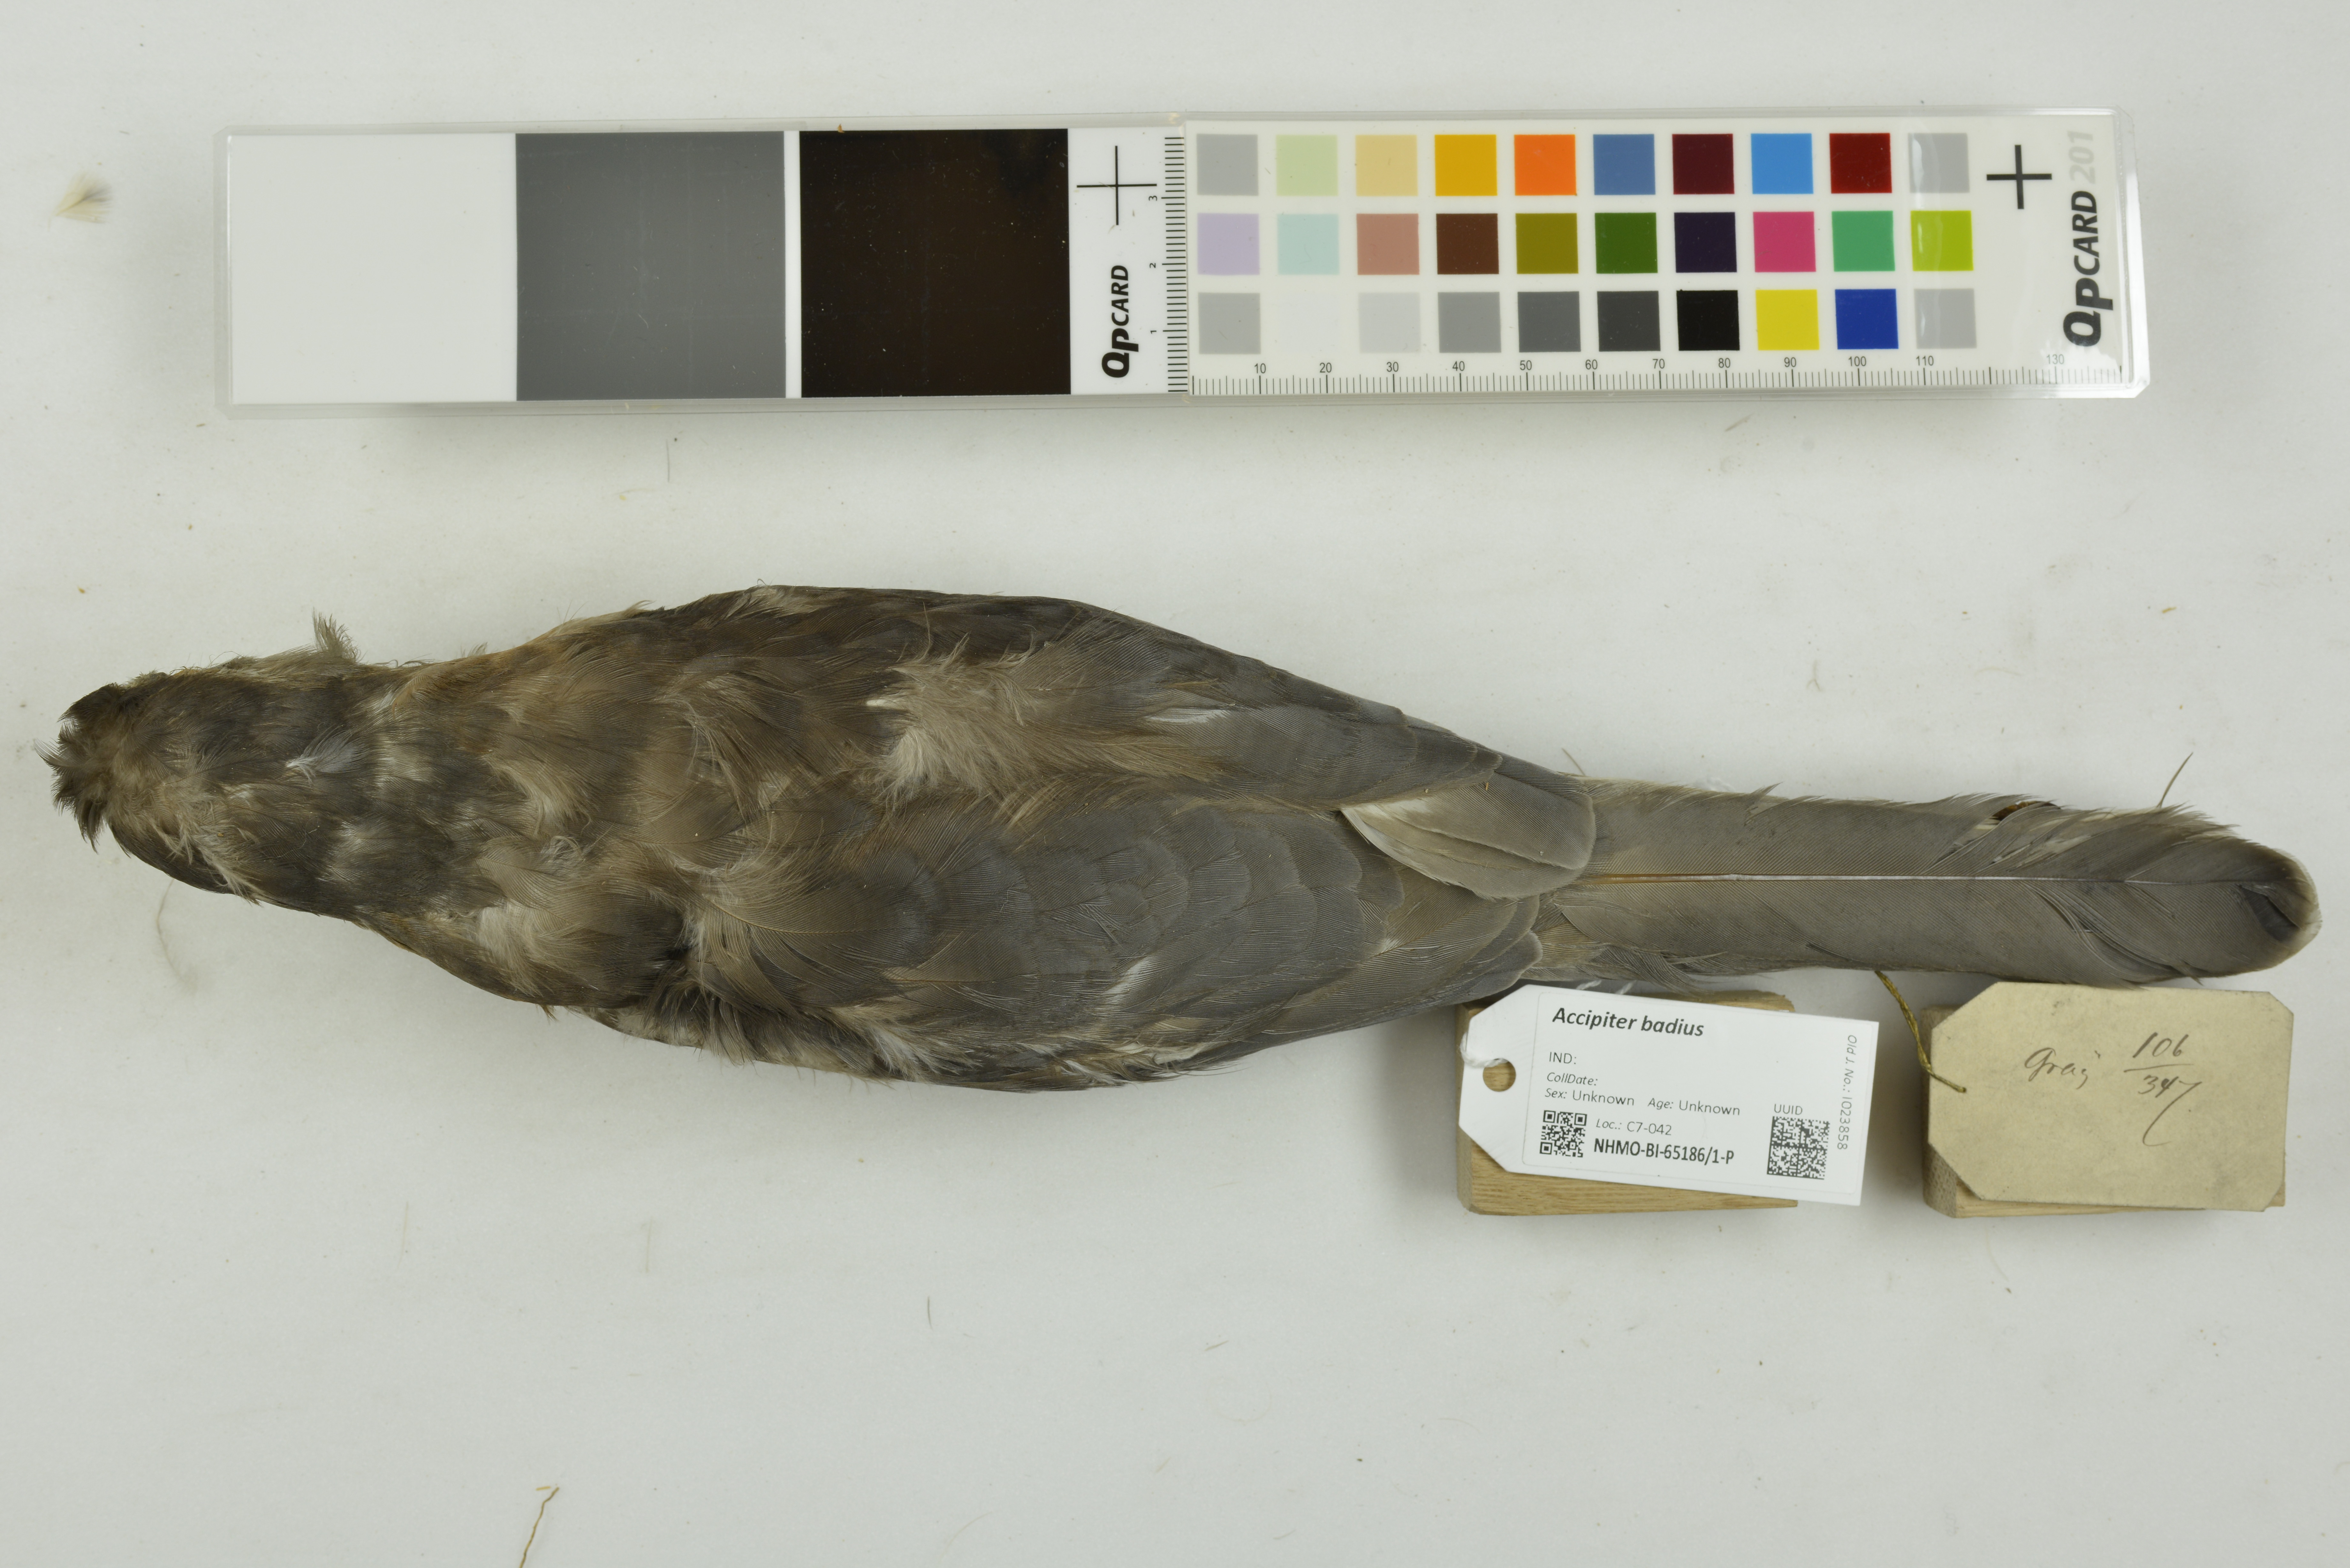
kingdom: Animalia
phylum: Chordata
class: Aves
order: Accipitriformes
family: Accipitridae
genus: Accipiter
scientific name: Accipiter badius
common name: Shikra
